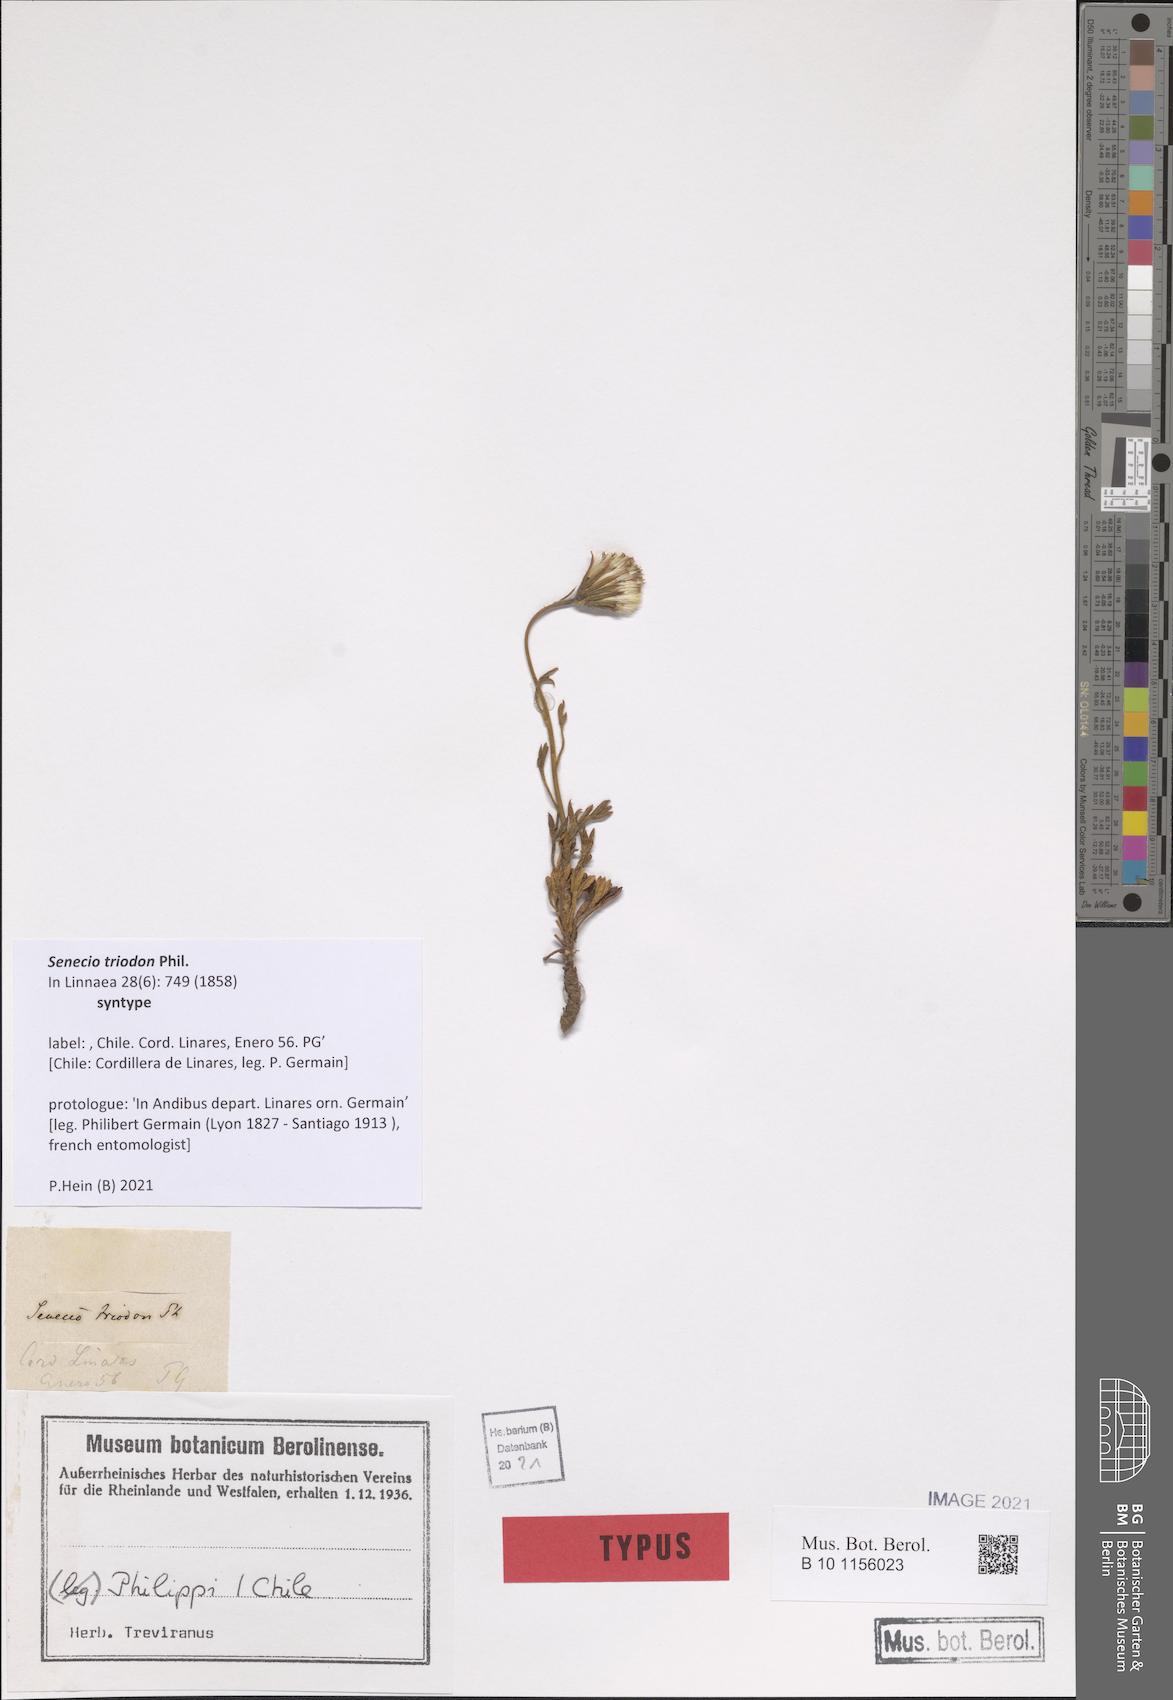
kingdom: Plantae
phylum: Tracheophyta
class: Magnoliopsida
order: Asterales
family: Asteraceae
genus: Senecio
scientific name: Senecio triodon
